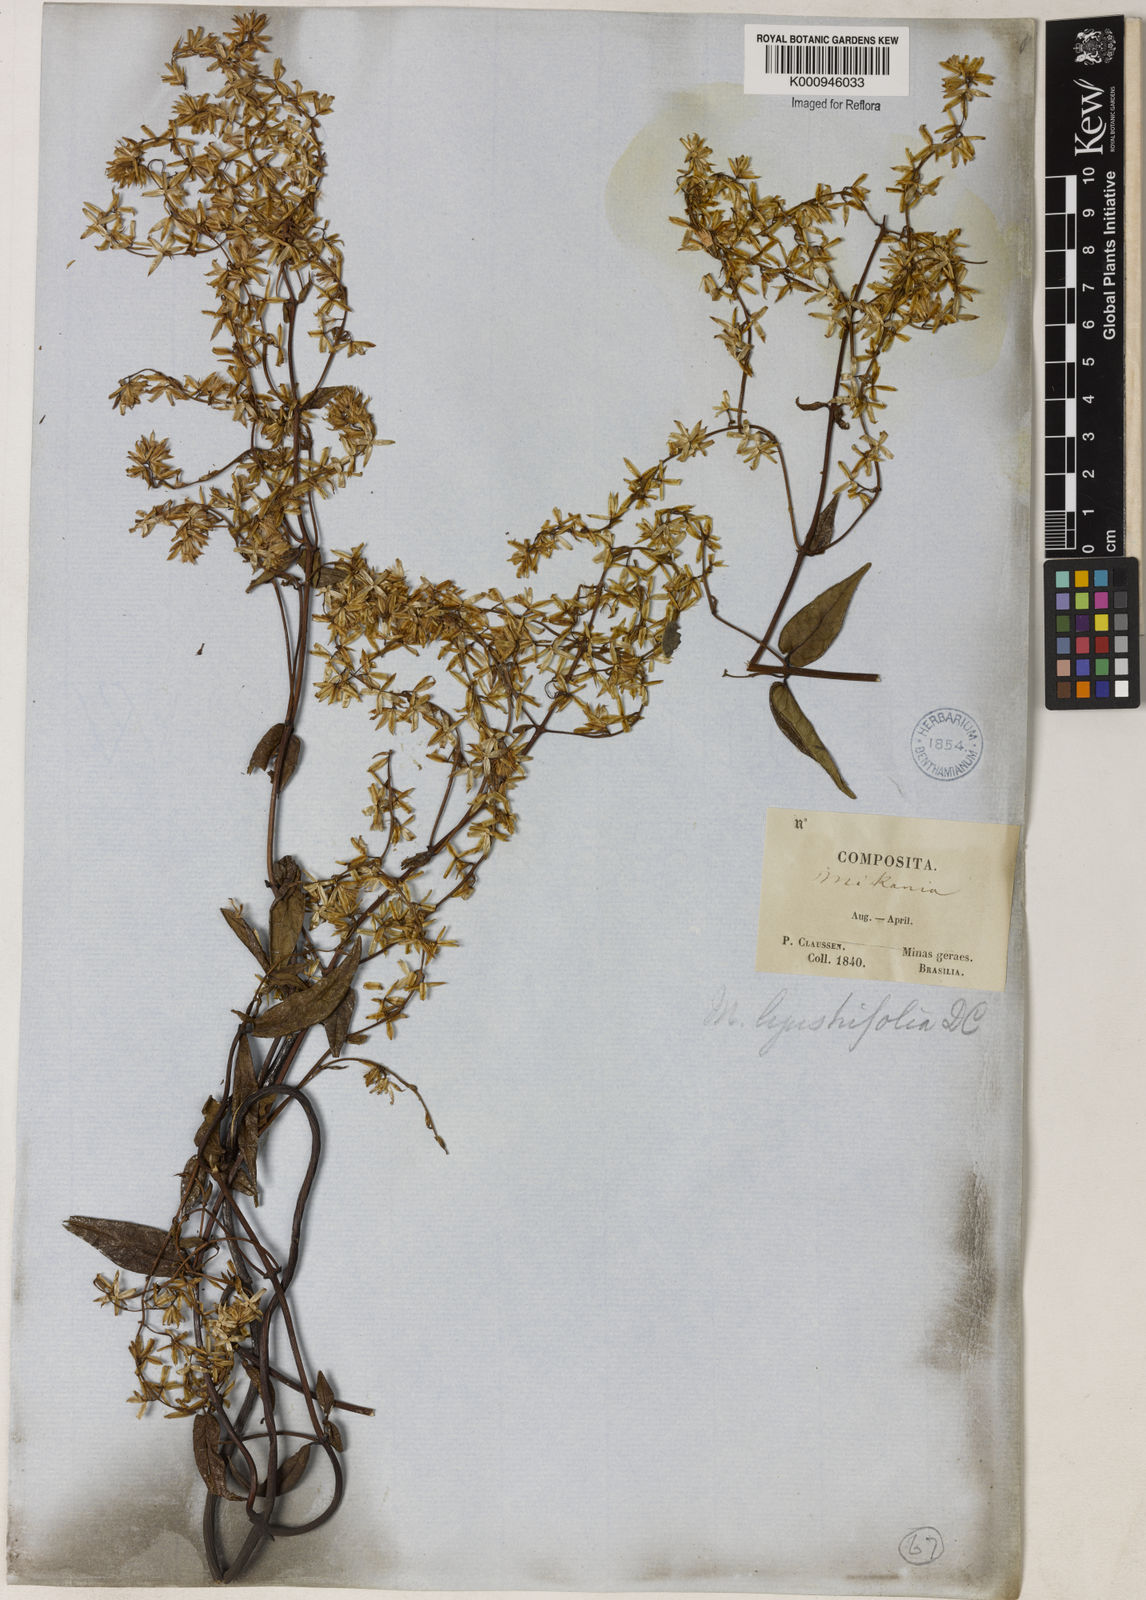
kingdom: Plantae
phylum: Tracheophyta
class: Magnoliopsida
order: Asterales
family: Asteraceae
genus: Mikania
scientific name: Mikania ligustrifolia
